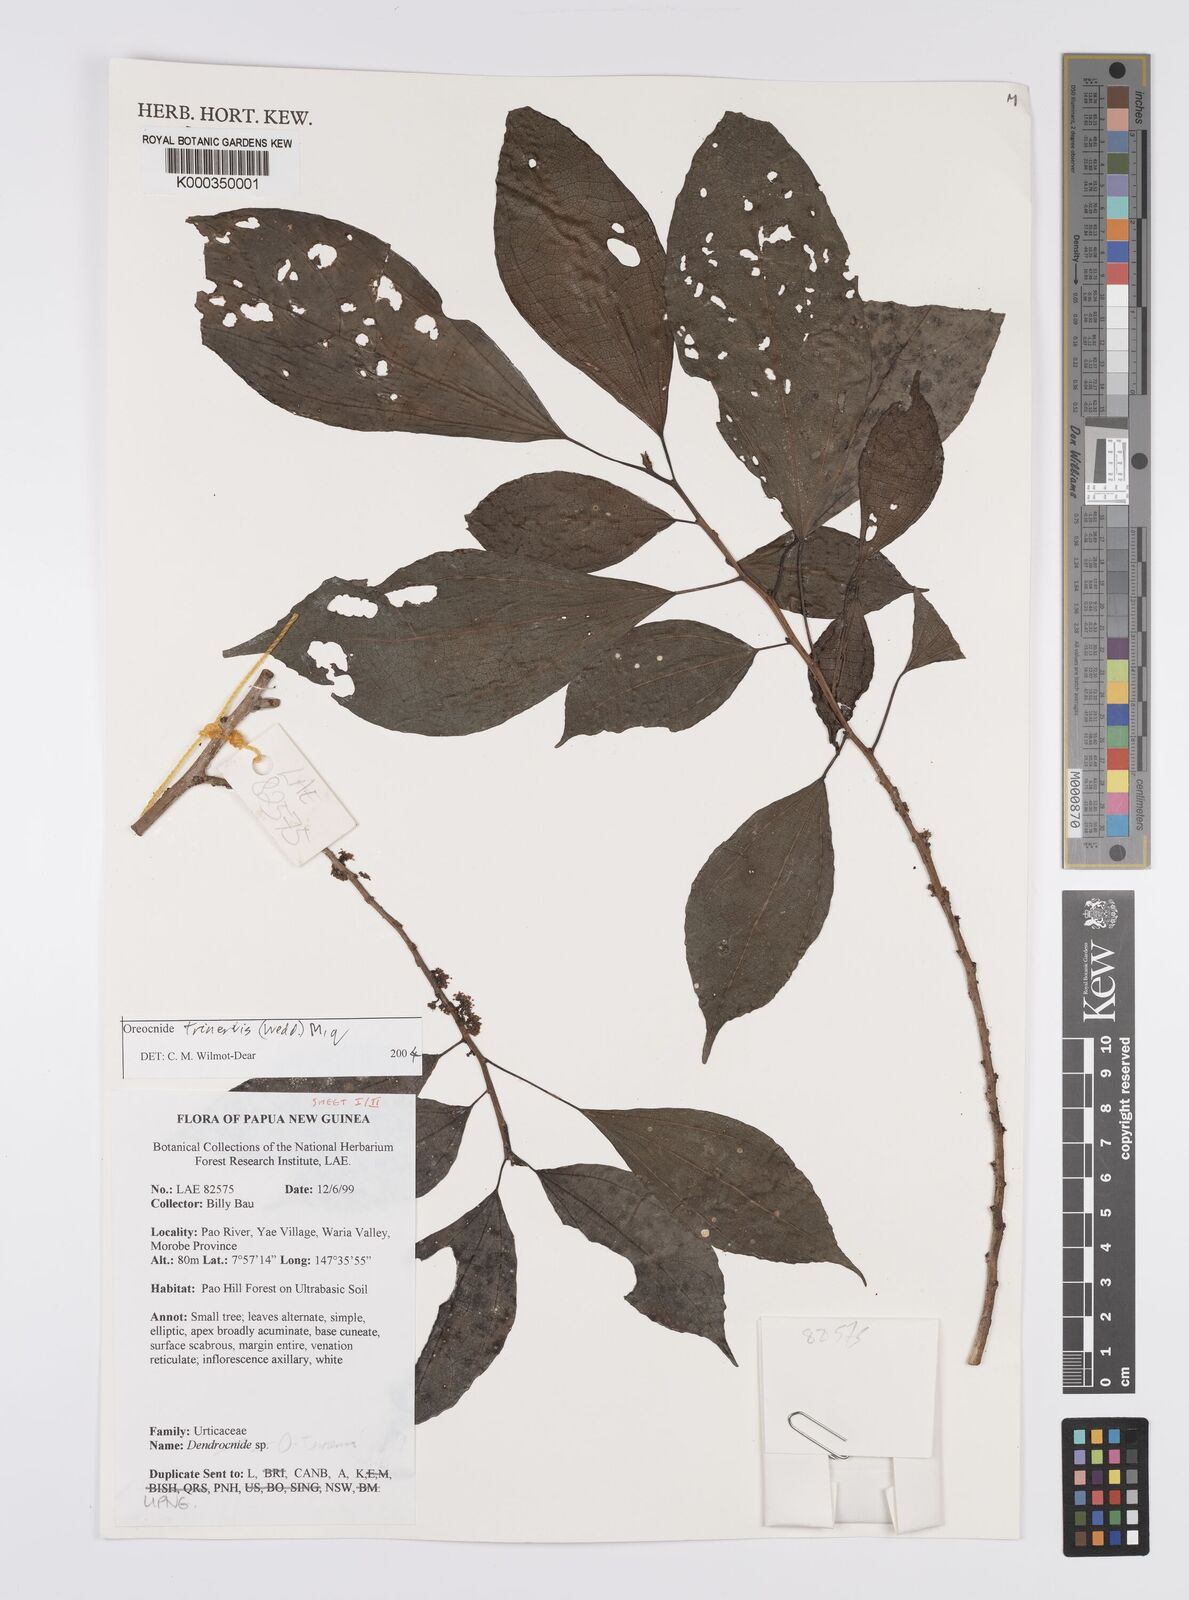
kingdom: Plantae
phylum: Tracheophyta
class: Magnoliopsida
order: Rosales
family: Urticaceae
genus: Oreocnide
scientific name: Oreocnide trinervis
